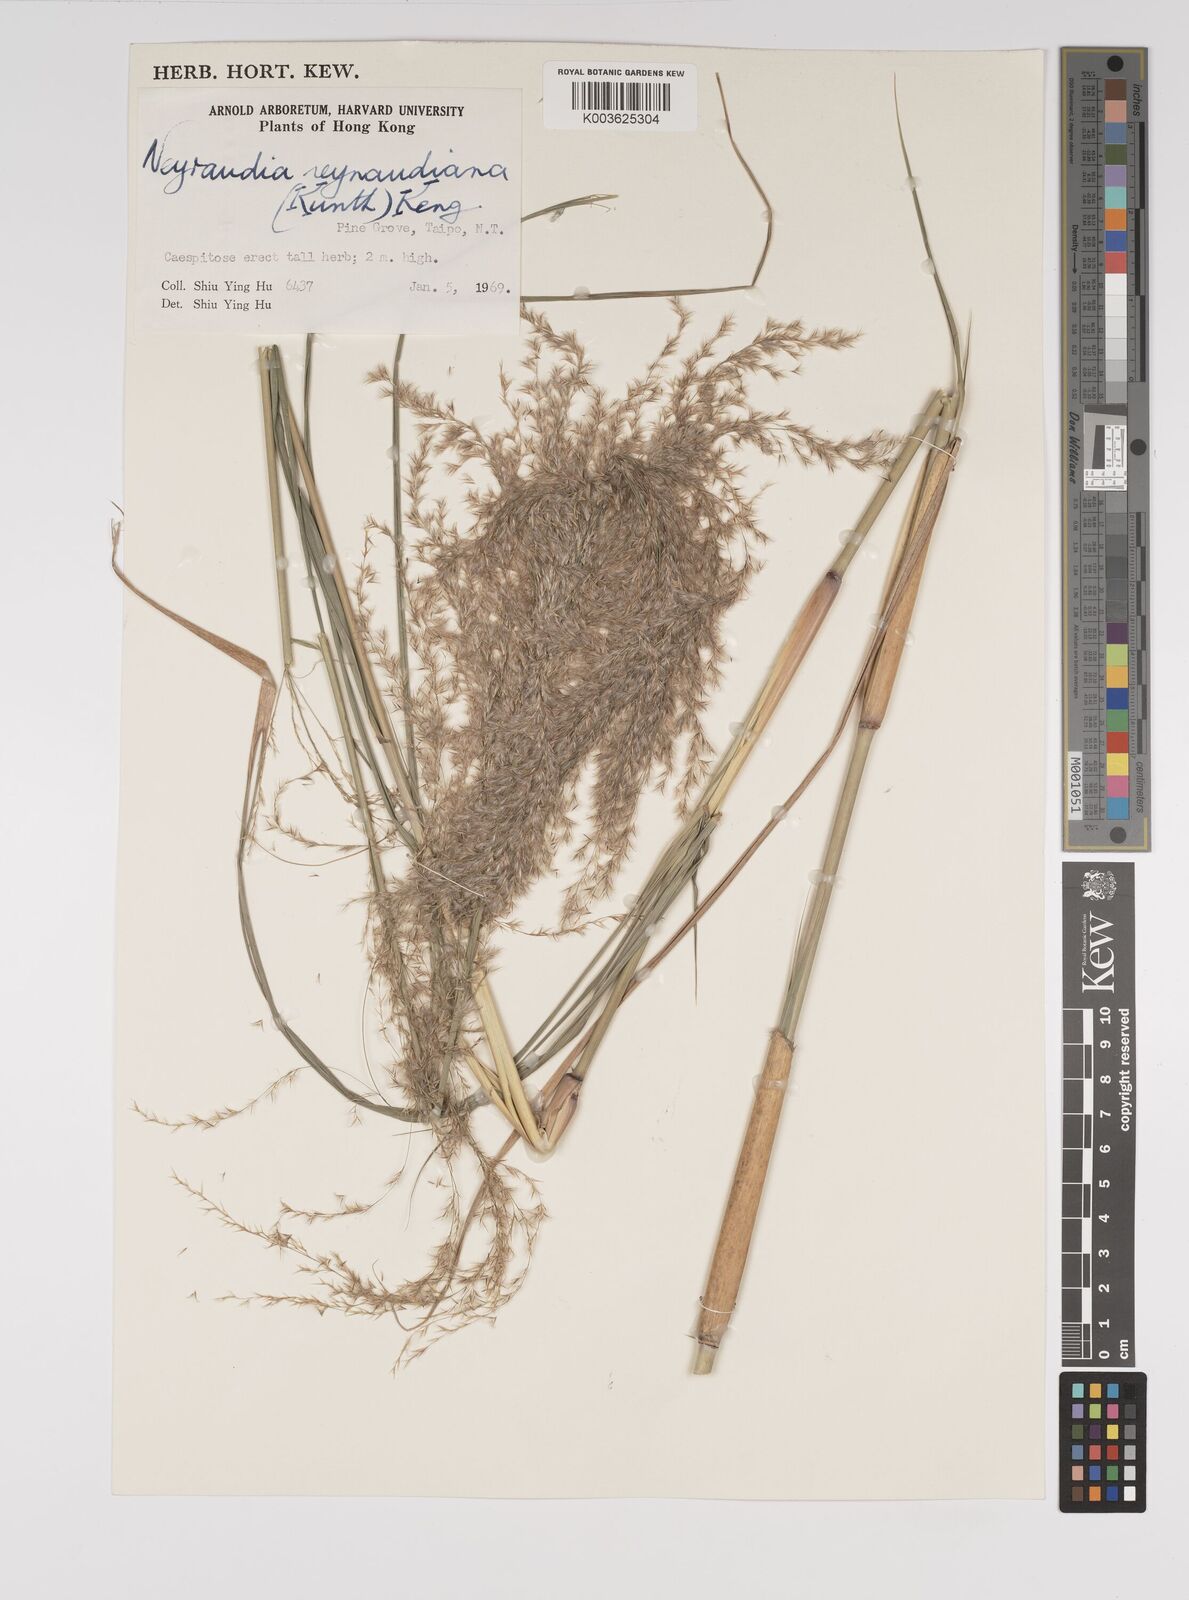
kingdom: Plantae
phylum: Tracheophyta
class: Liliopsida
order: Poales
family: Poaceae
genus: Neyraudia
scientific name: Neyraudia reynaudiana
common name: Silkreed
